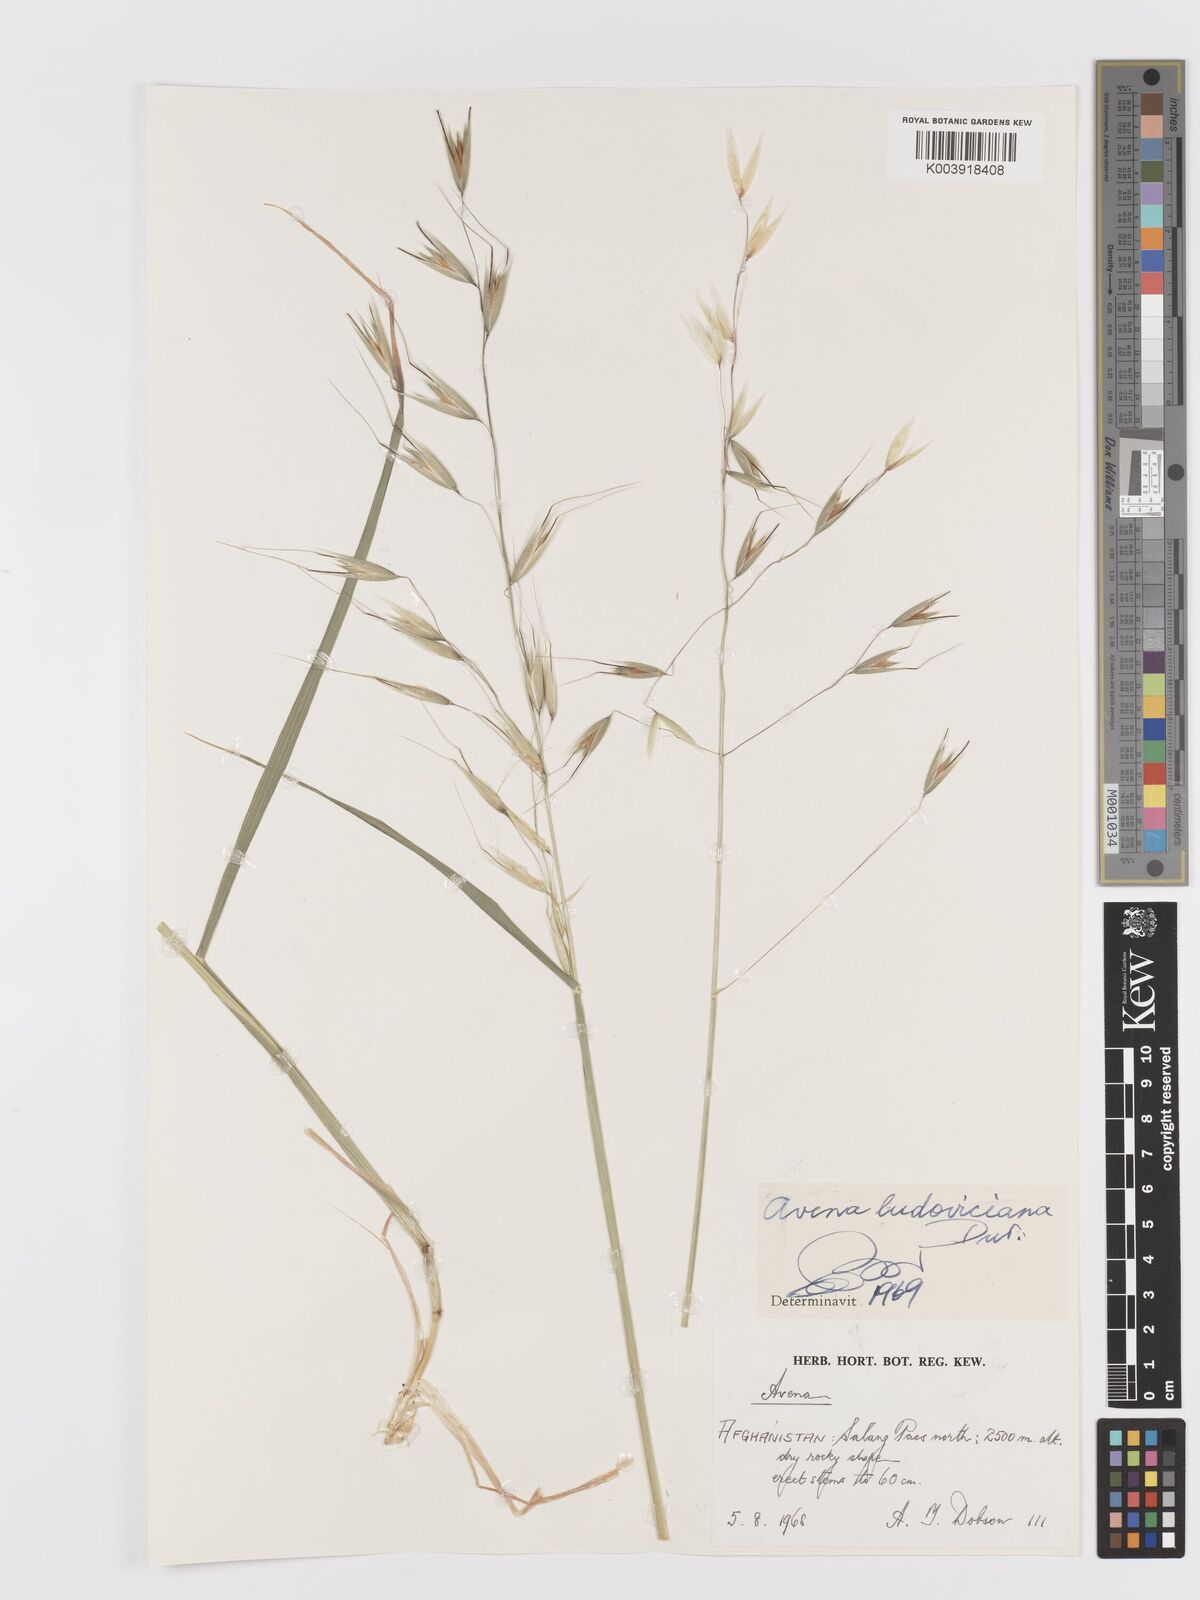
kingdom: Plantae
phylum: Tracheophyta
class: Liliopsida
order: Poales
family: Poaceae
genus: Avena
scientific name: Avena sterilis
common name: Animated oat
